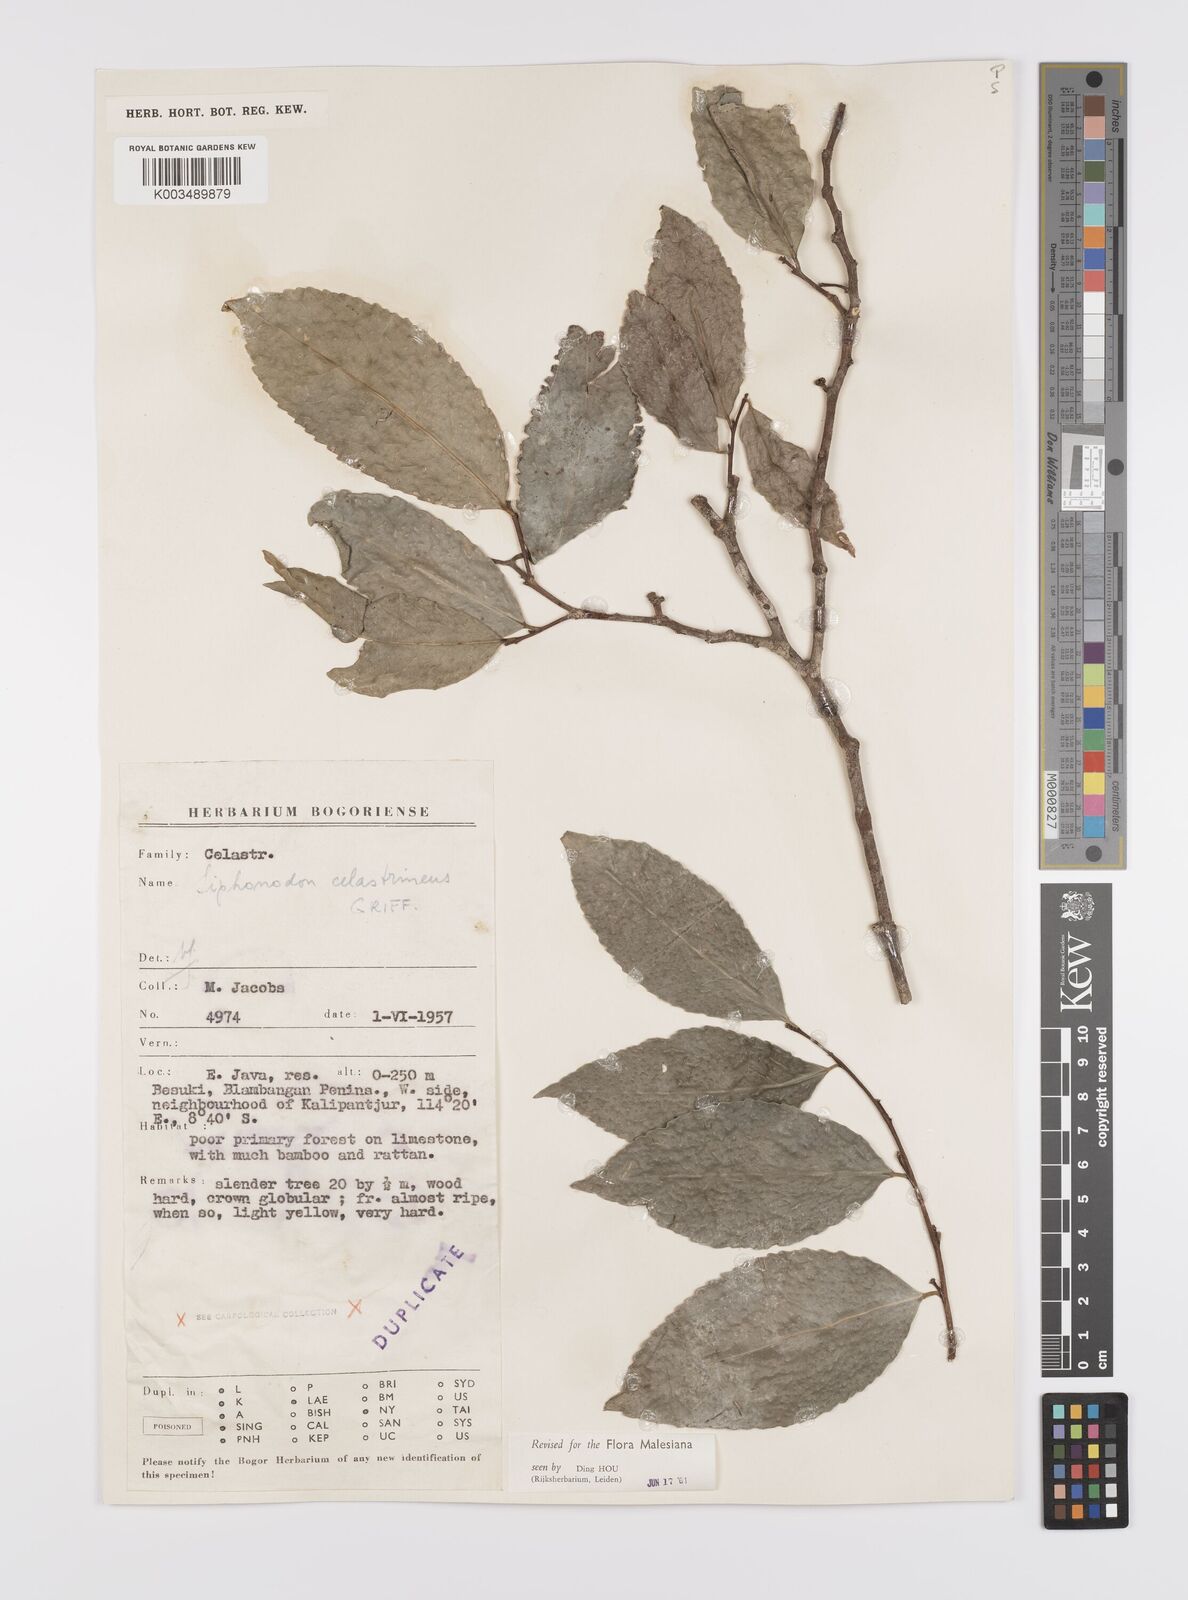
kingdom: Plantae
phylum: Tracheophyta
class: Magnoliopsida
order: Celastrales
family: Celastraceae
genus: Siphonodon
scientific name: Siphonodon celastrineus
